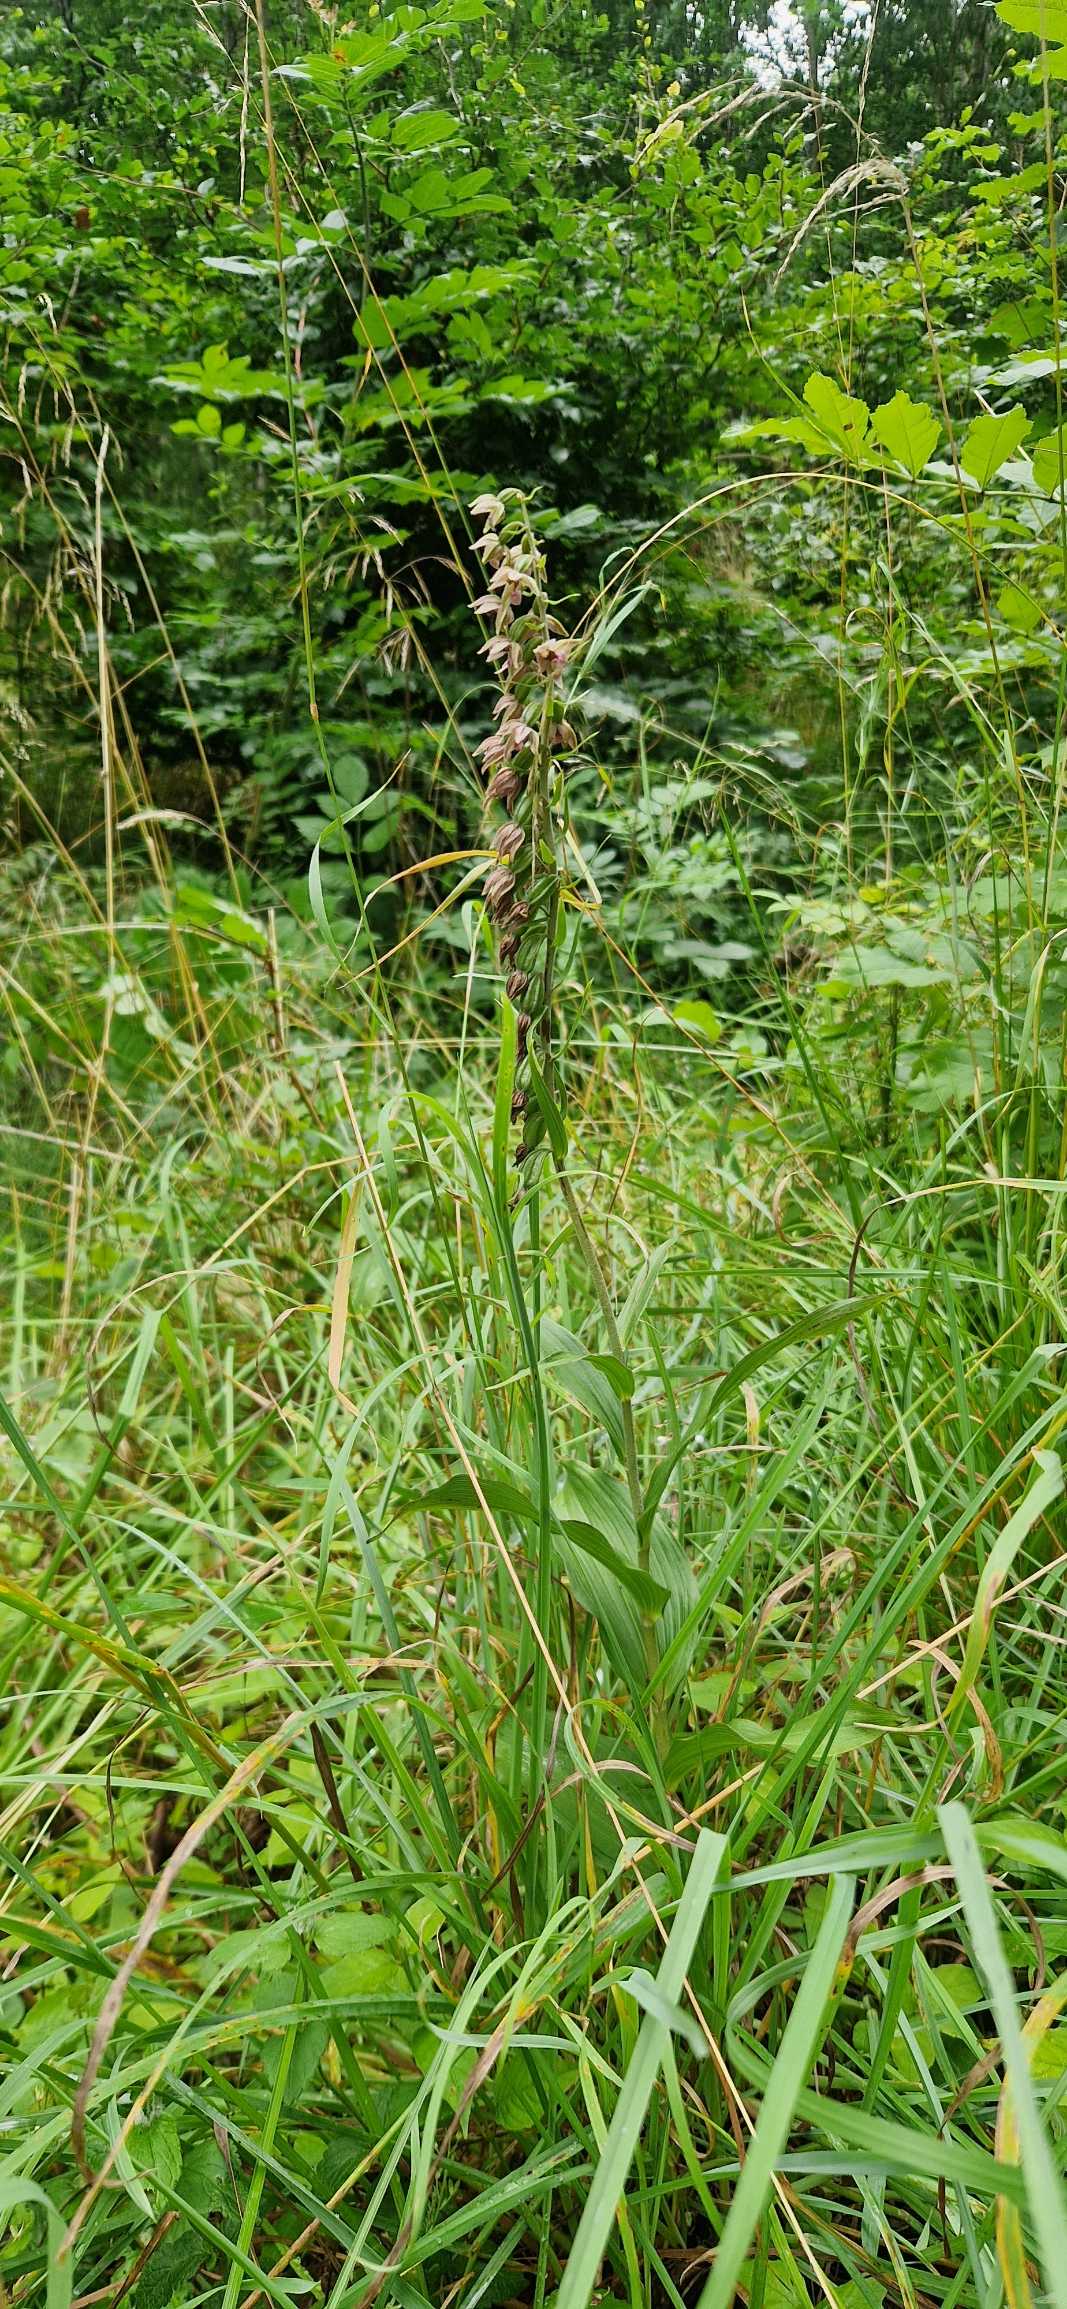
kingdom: Plantae
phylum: Tracheophyta
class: Liliopsida
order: Asparagales
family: Orchidaceae
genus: Epipactis
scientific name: Epipactis helleborine
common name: Skov-hullæbe
